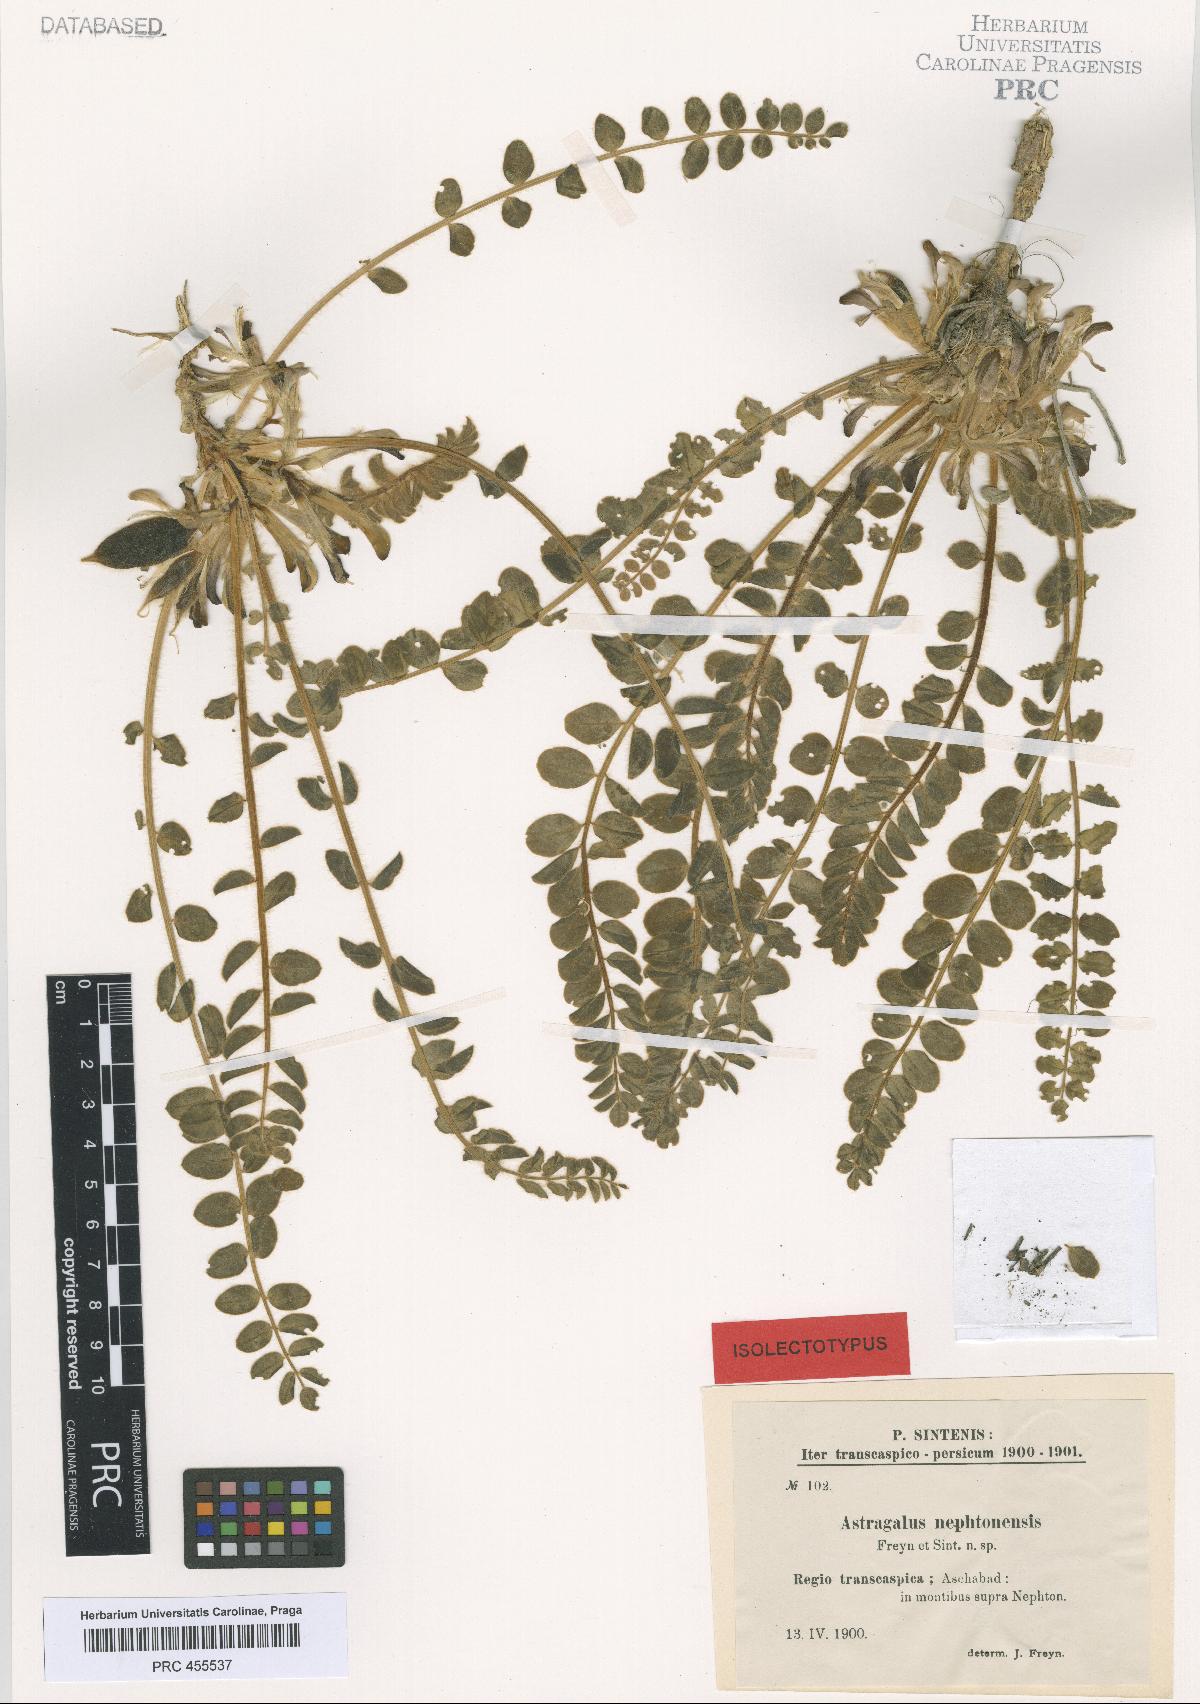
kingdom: Plantae
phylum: Tracheophyta
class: Magnoliopsida
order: Fabales
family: Fabaceae
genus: Astragalus
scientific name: Astragalus nephtonensis
